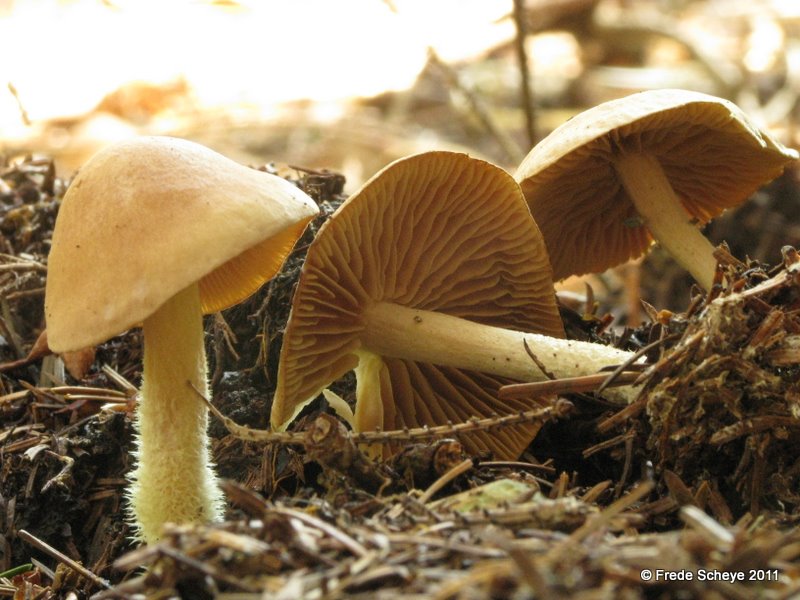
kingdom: Fungi
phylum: Basidiomycota
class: Agaricomycetes
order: Agaricales
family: Omphalotaceae
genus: Collybiopsis
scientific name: Collybiopsis peronata
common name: bestøvlet fladhat
